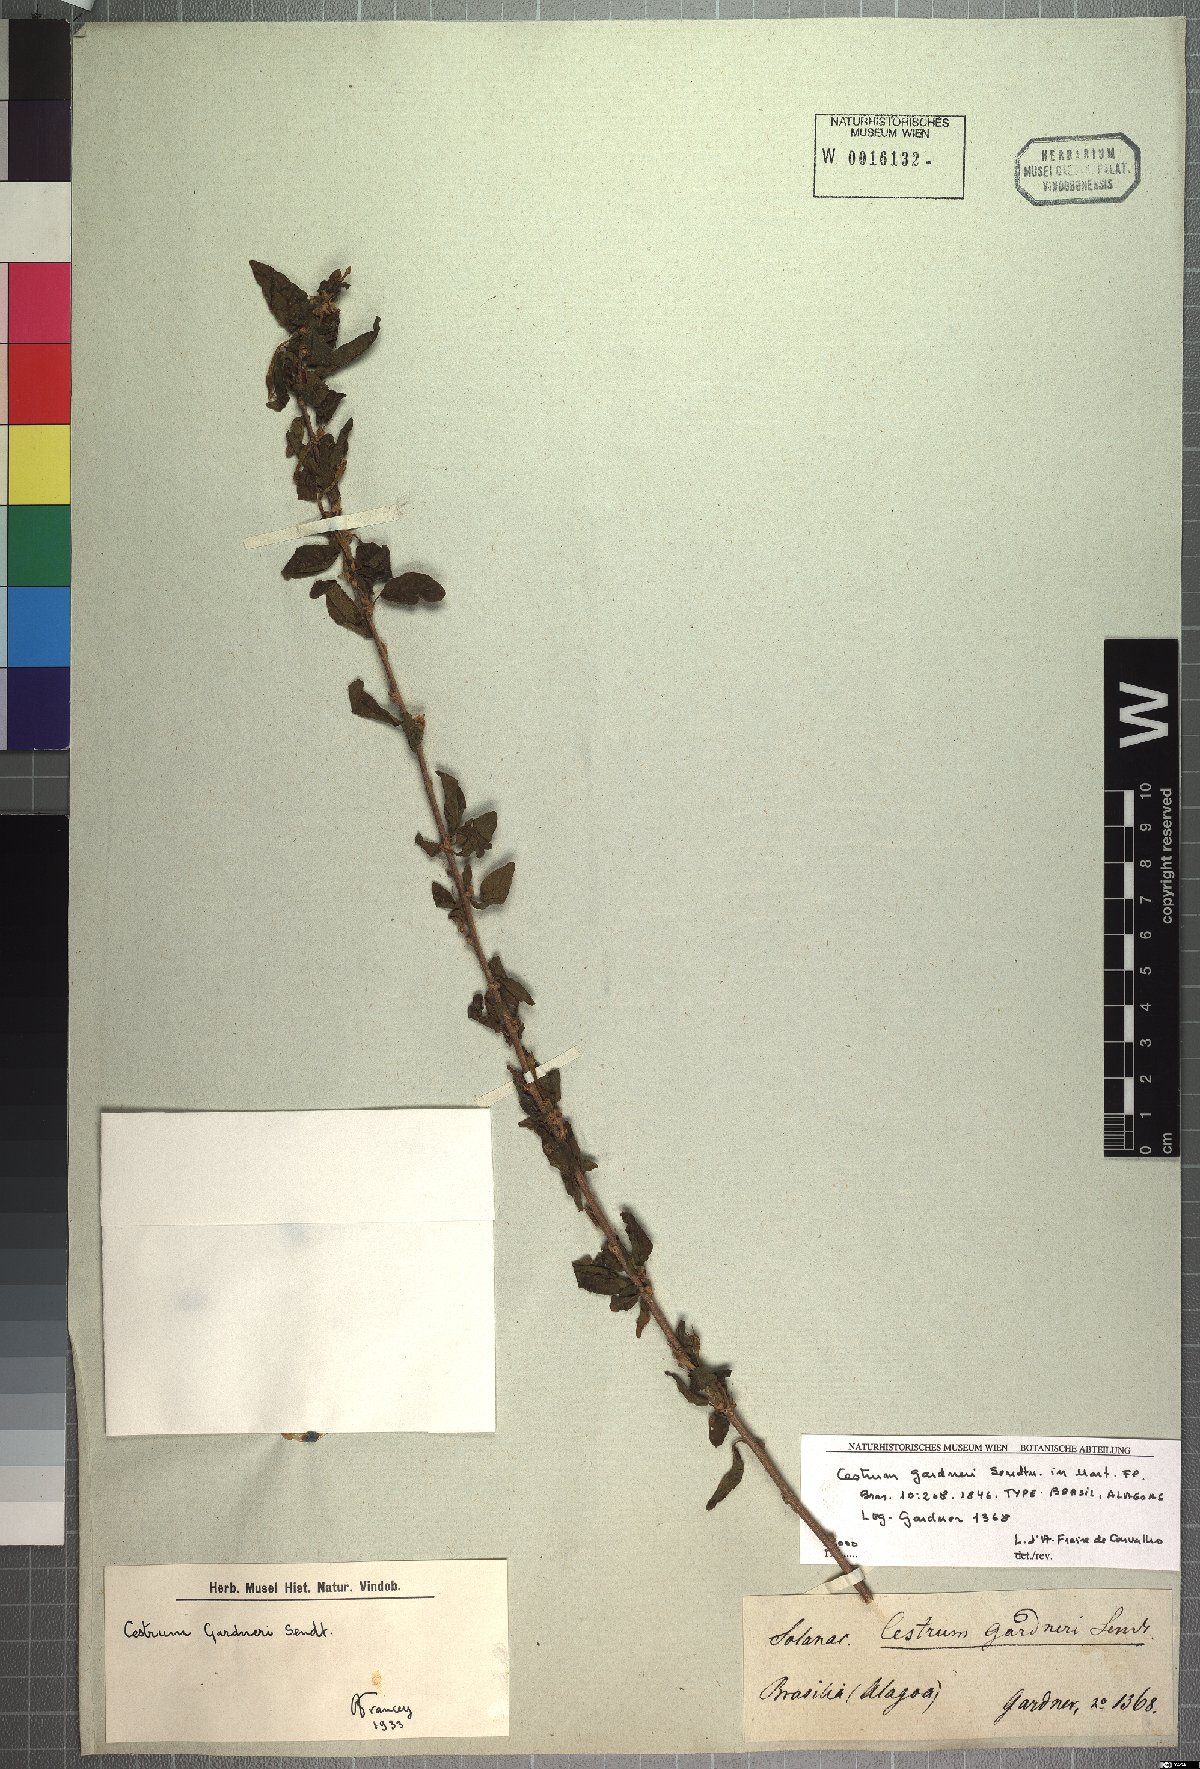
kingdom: Plantae
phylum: Tracheophyta
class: Magnoliopsida
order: Solanales
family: Solanaceae
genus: Cestrum
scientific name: Cestrum gardneri
